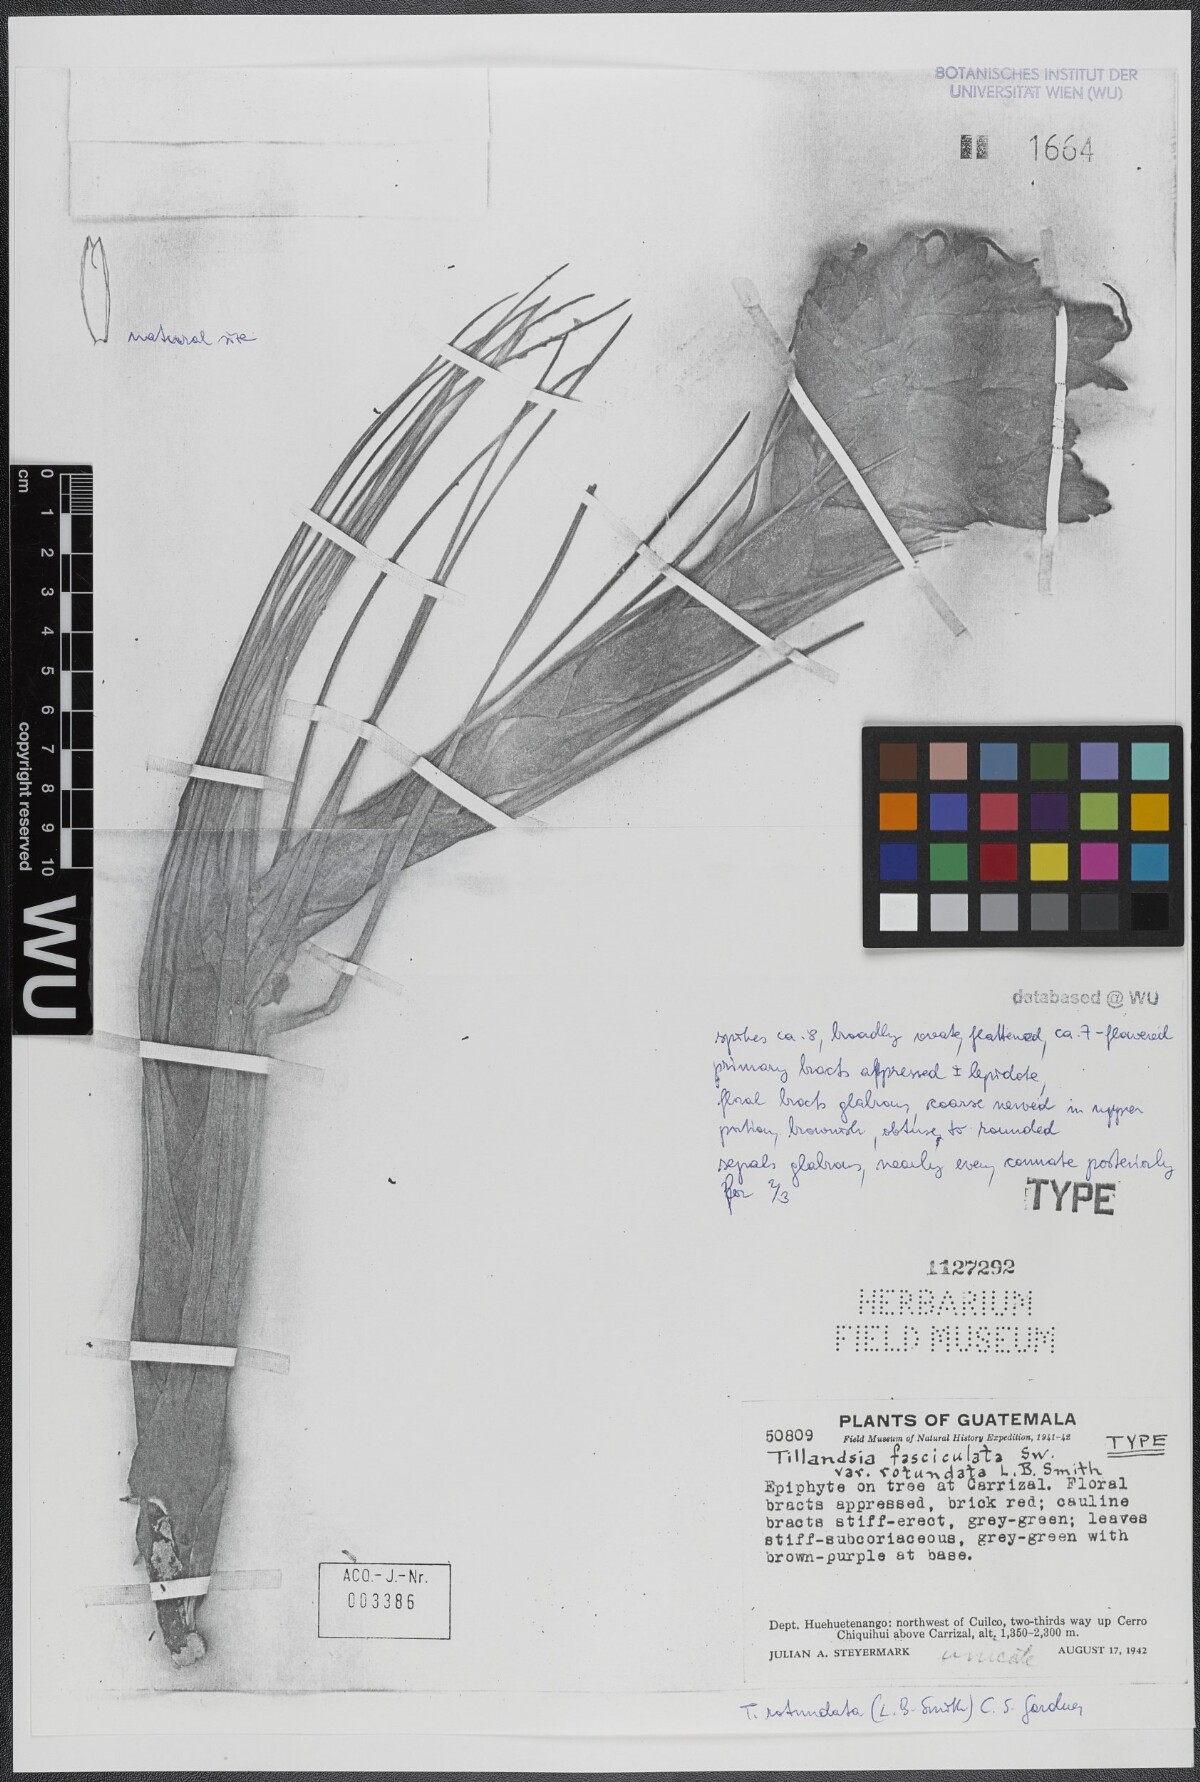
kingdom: Plantae
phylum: Tracheophyta
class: Liliopsida
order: Poales
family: Bromeliaceae
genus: Tillandsia
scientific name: Tillandsia rotundata
